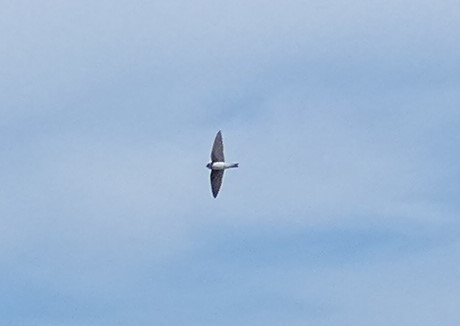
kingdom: Animalia
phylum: Chordata
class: Aves
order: Passeriformes
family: Hirundinidae
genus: Riparia
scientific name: Riparia riparia
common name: Digesvale
